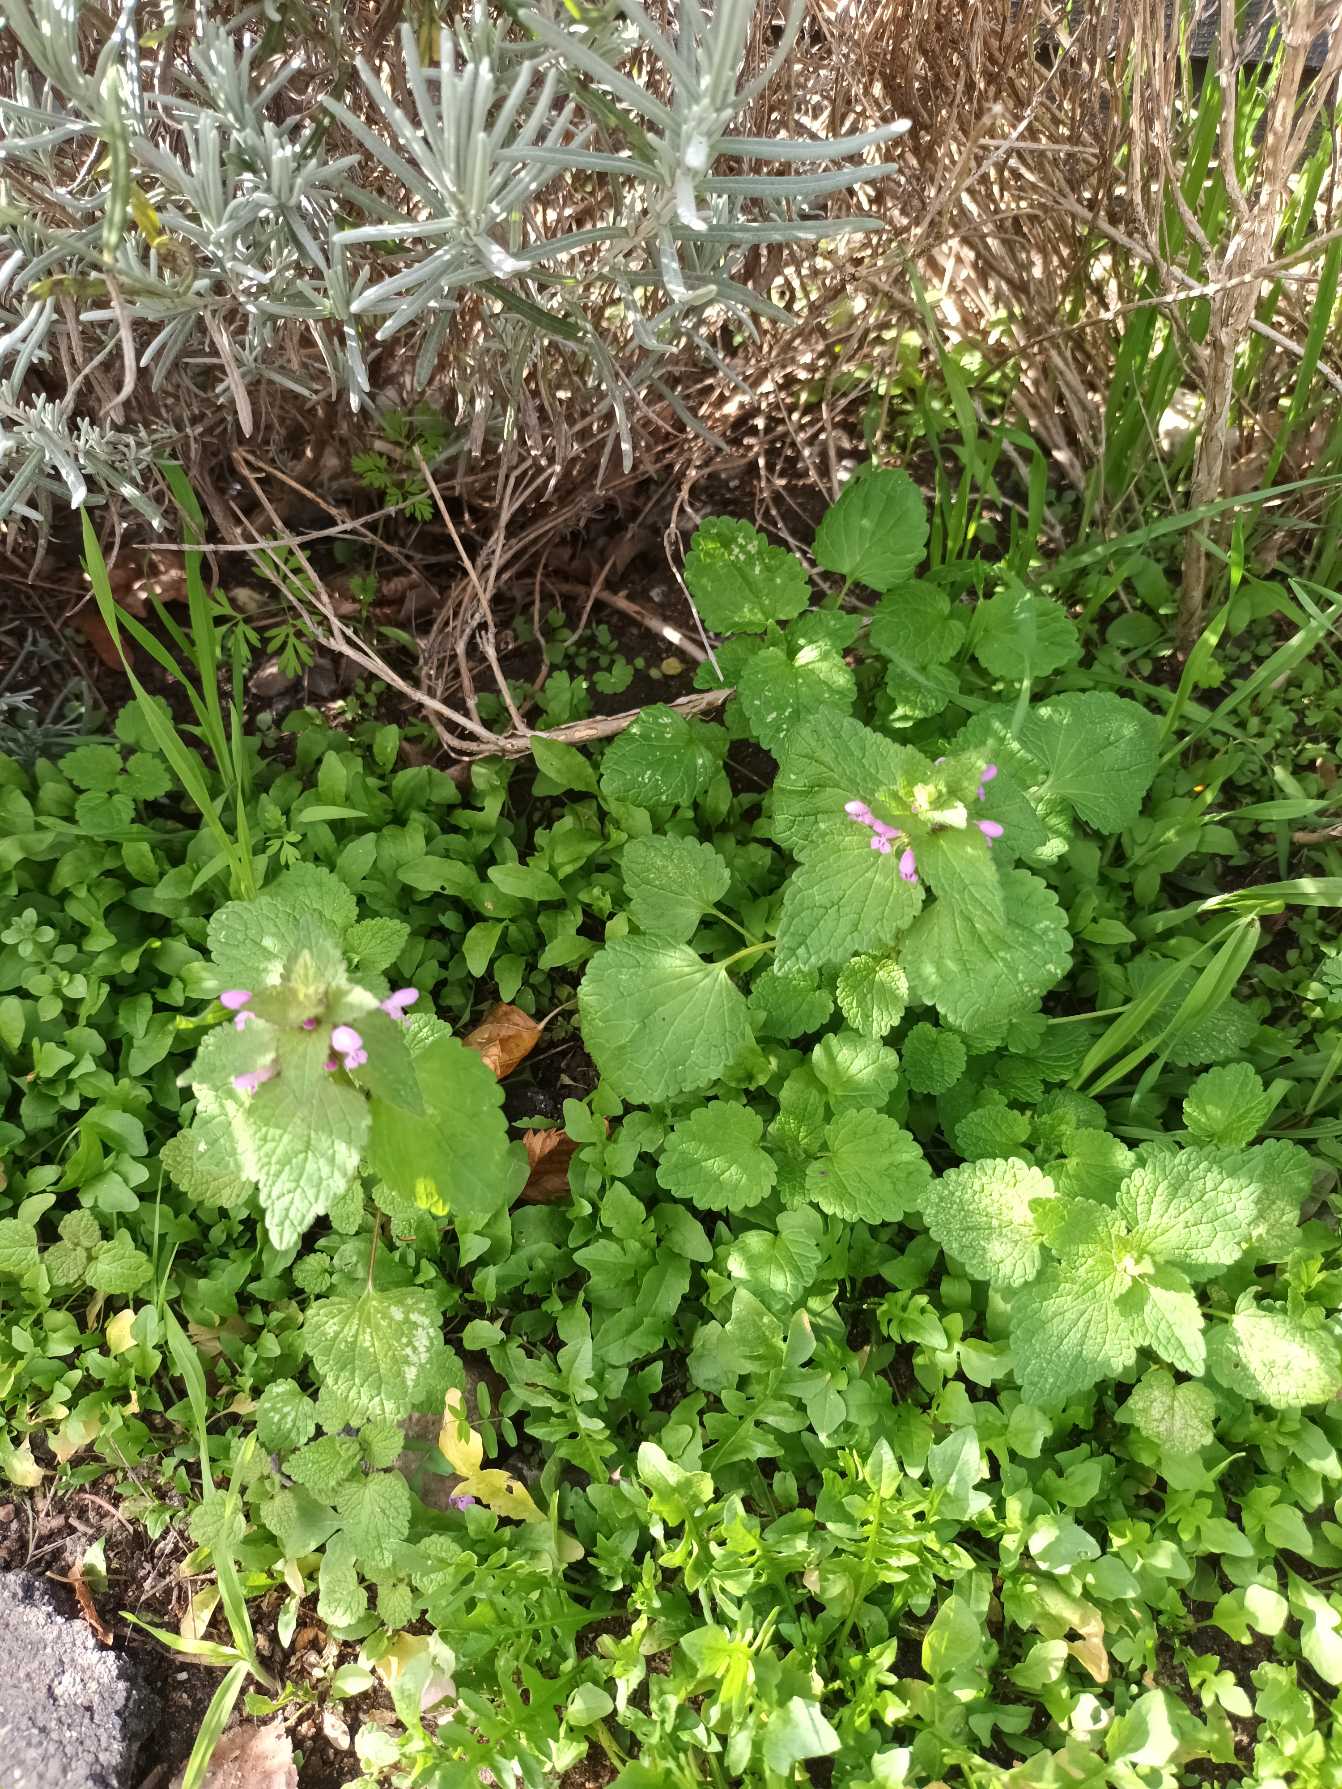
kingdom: Plantae
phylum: Tracheophyta
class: Magnoliopsida
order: Lamiales
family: Lamiaceae
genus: Lamium
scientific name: Lamium purpureum
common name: Rød tvetand
